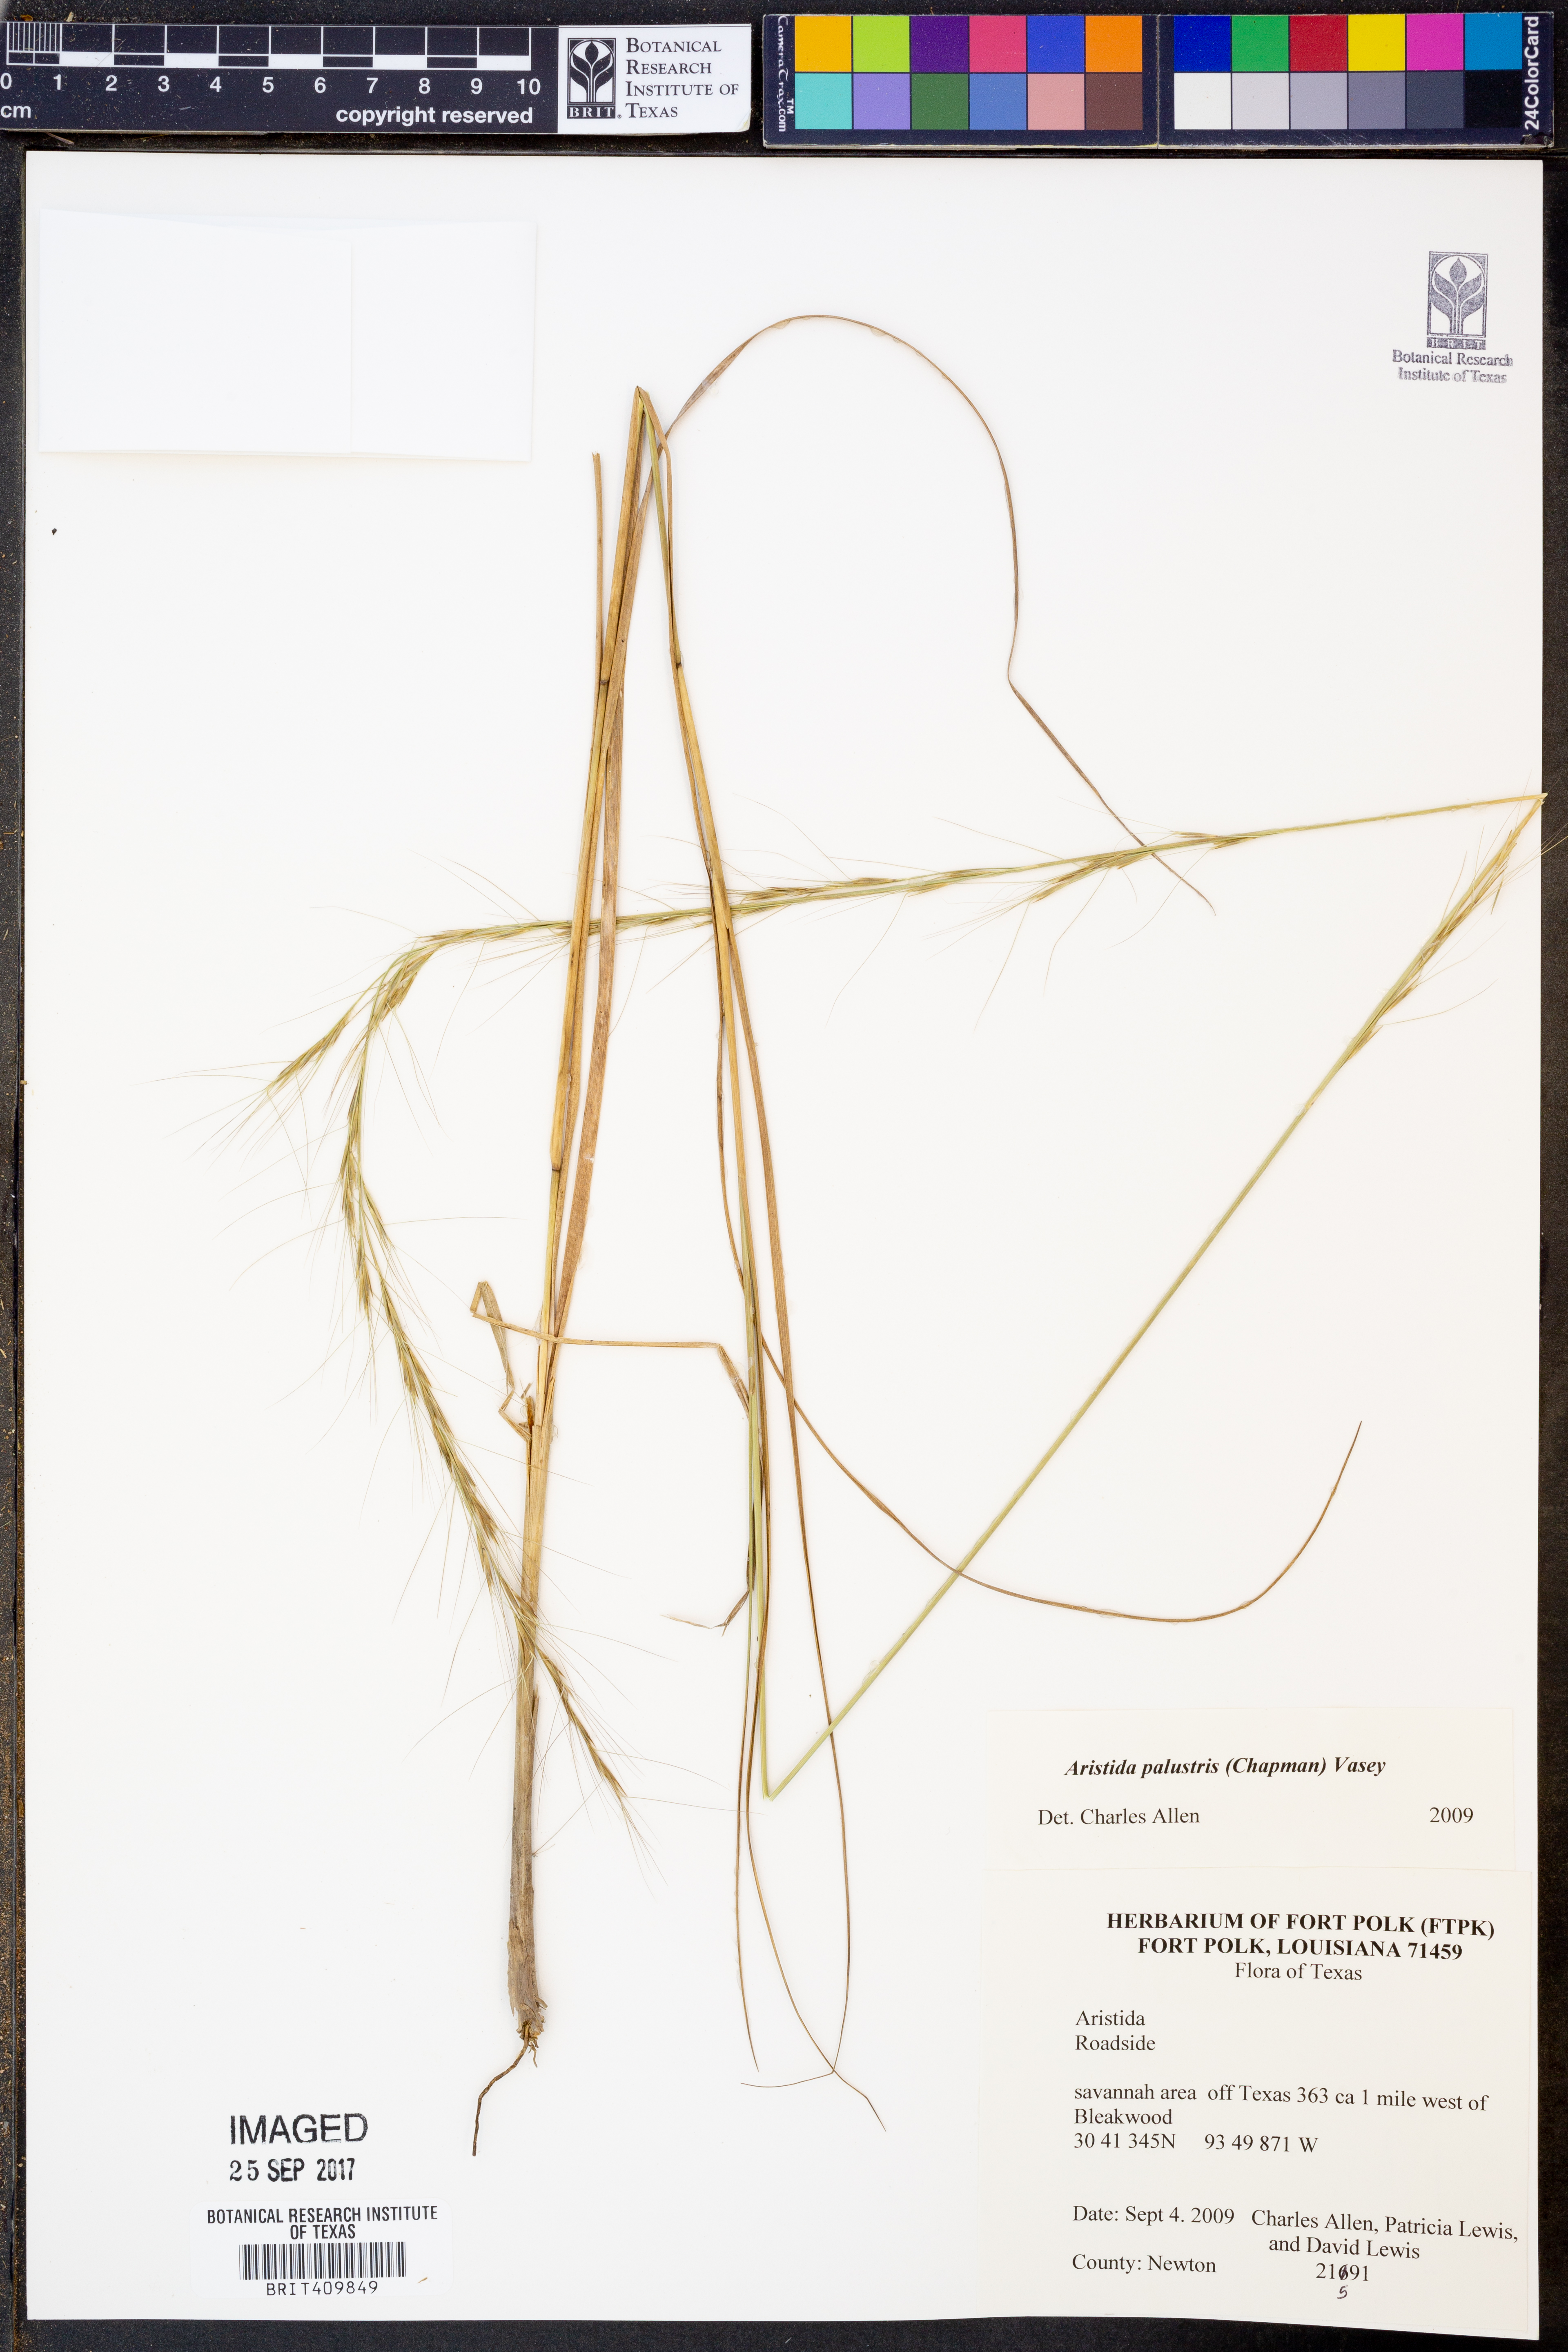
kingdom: Plantae
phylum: Tracheophyta
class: Liliopsida
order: Poales
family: Poaceae
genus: Aristida
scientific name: Aristida palustris
